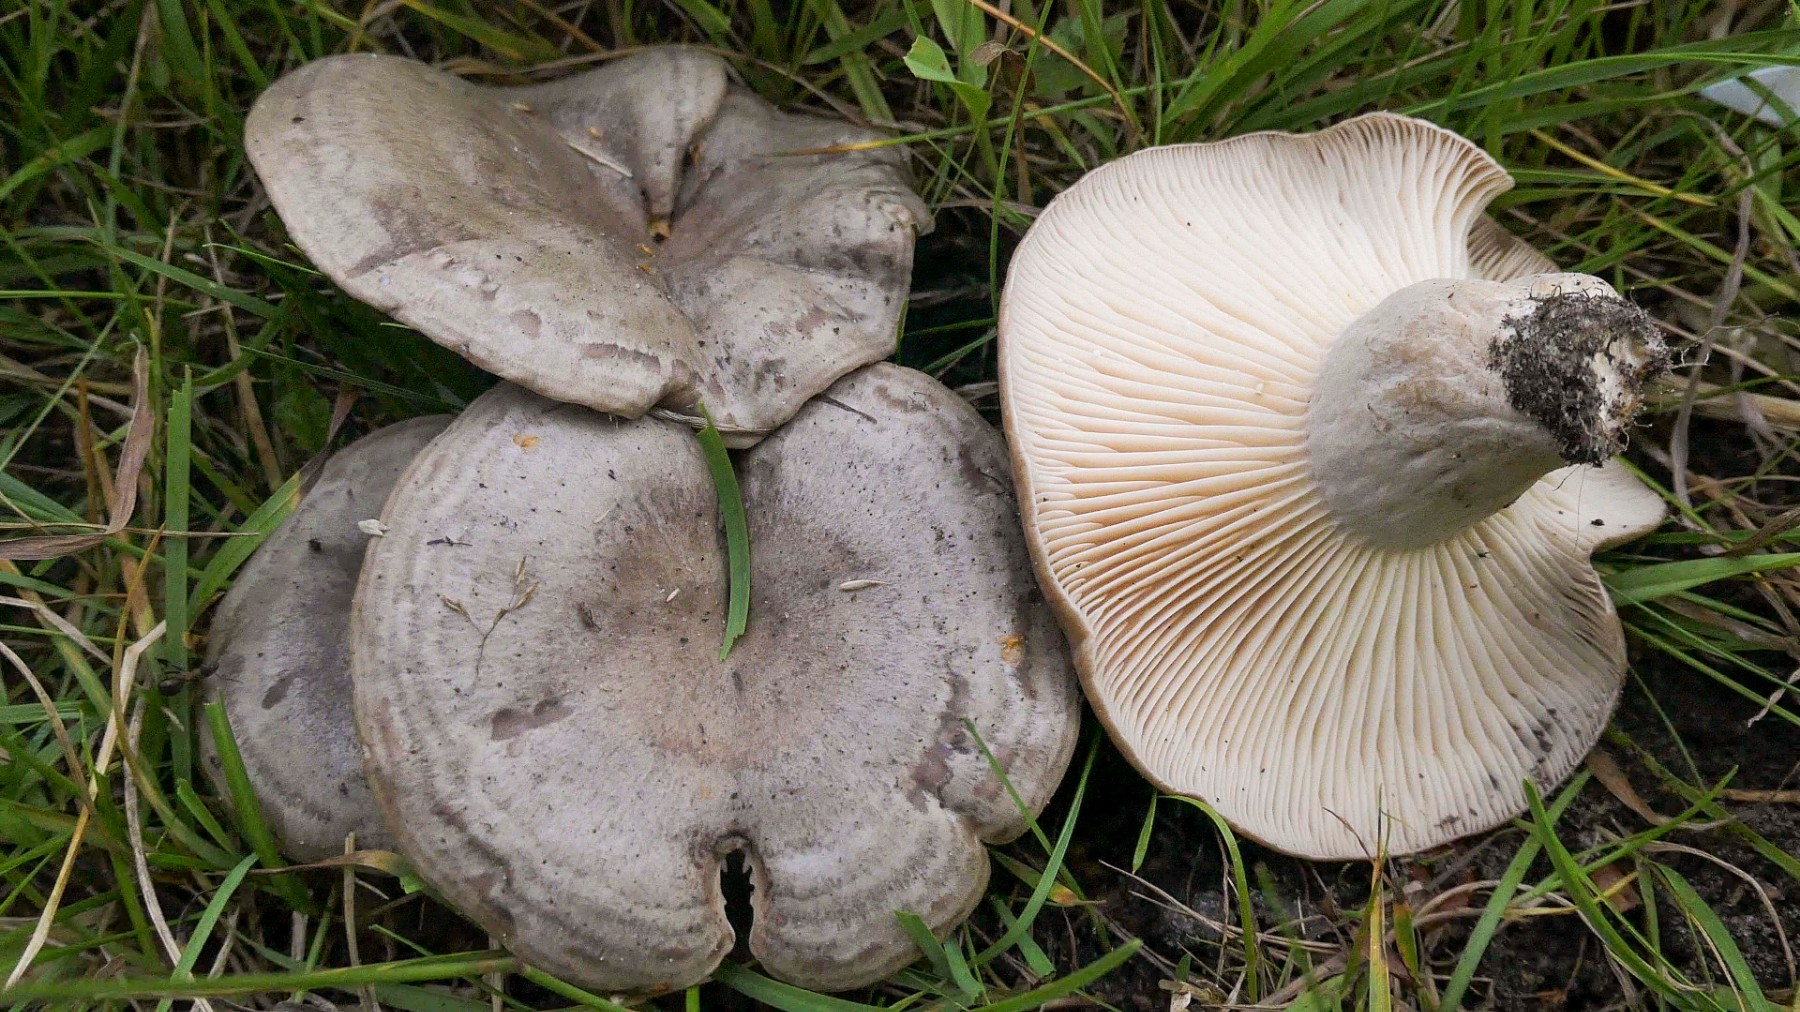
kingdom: Fungi
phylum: Basidiomycota
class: Agaricomycetes
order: Russulales
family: Russulaceae
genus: Lactarius
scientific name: Lactarius flexuosus
